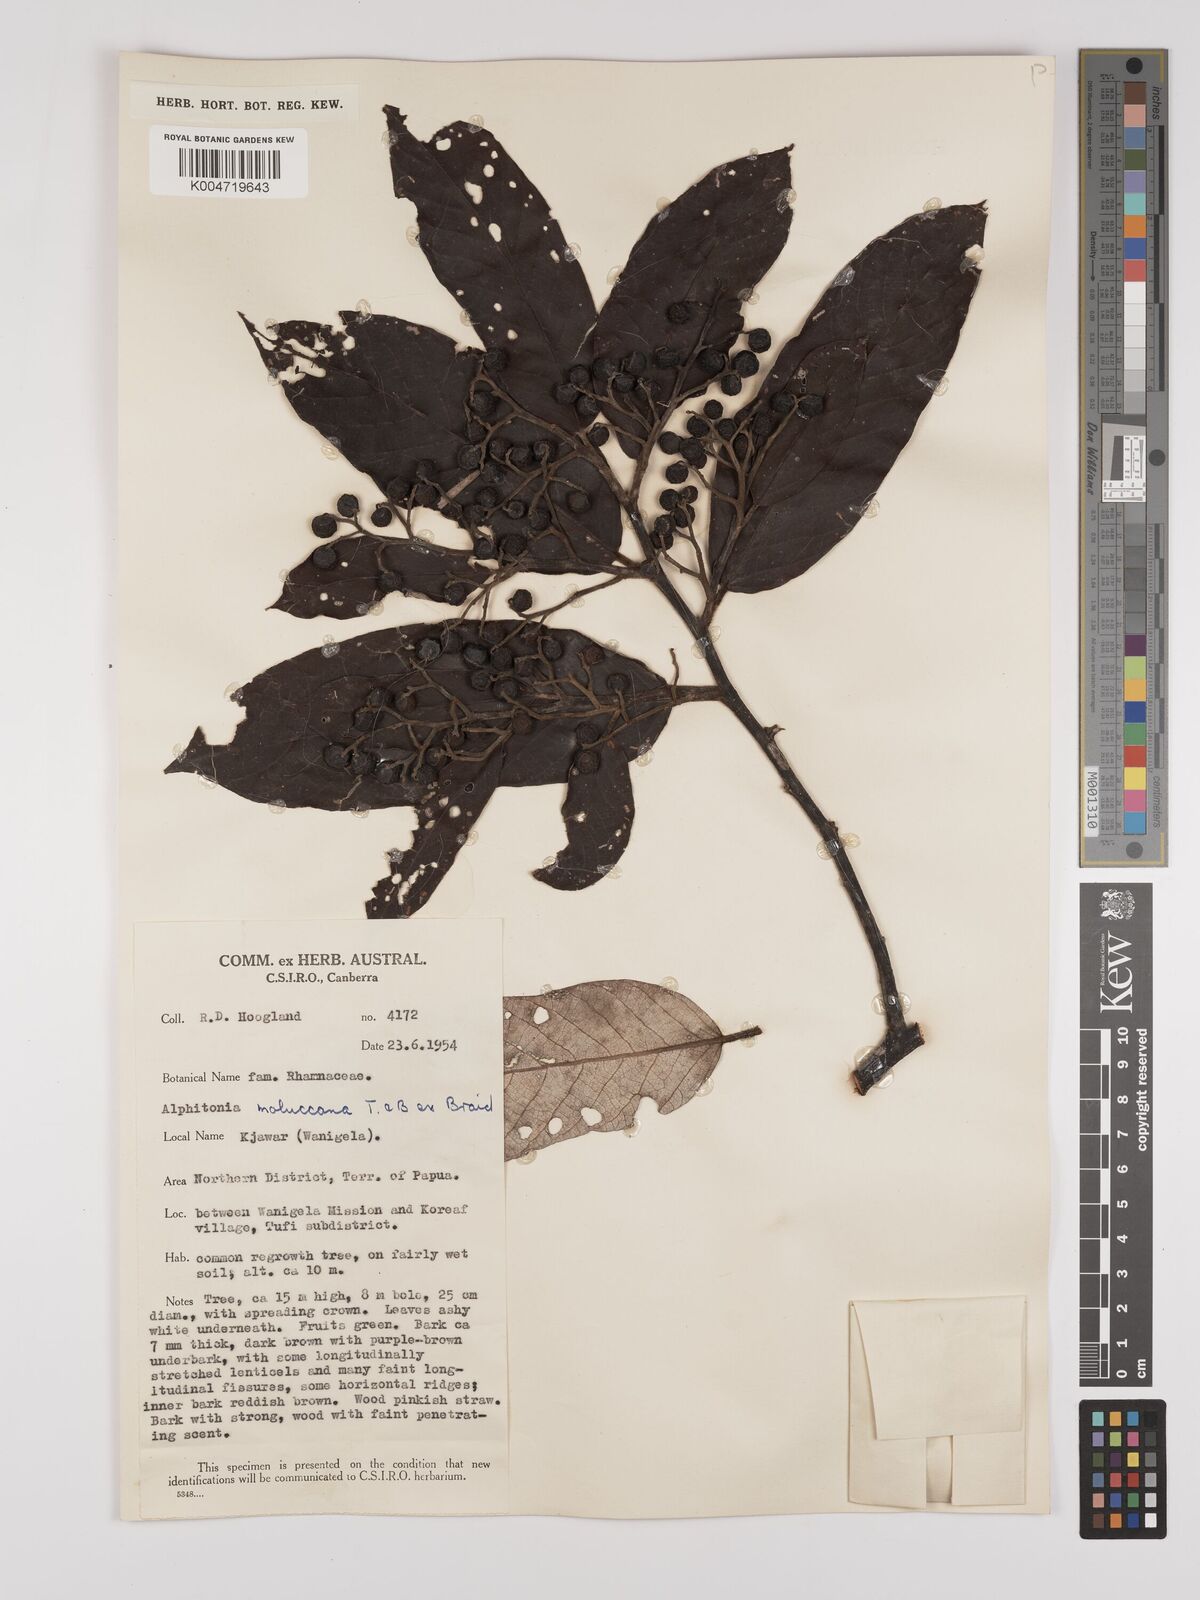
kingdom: Plantae
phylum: Tracheophyta
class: Magnoliopsida
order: Rosales
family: Rhamnaceae
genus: Alphitonia
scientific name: Alphitonia incana
